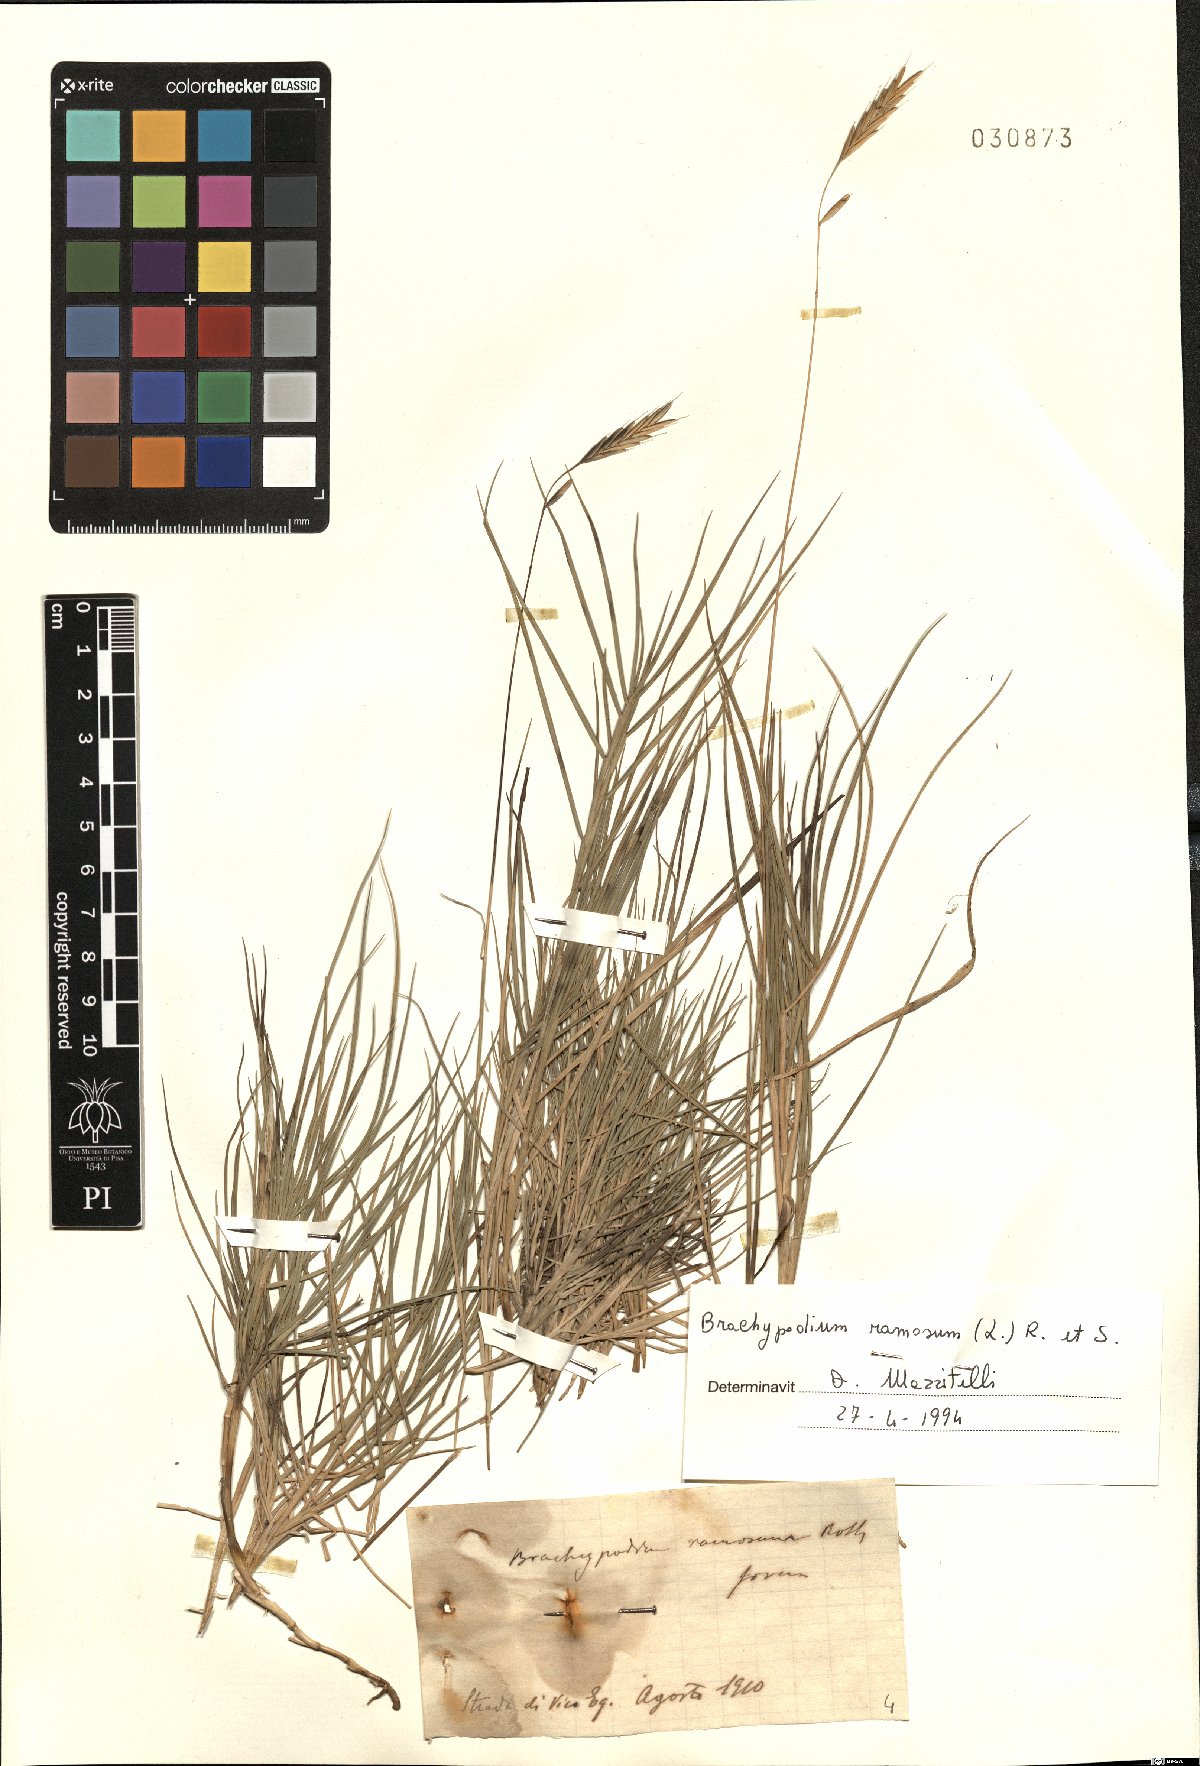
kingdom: Plantae
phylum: Tracheophyta
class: Liliopsida
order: Poales
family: Poaceae
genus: Brachypodium
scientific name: Brachypodium retusum
